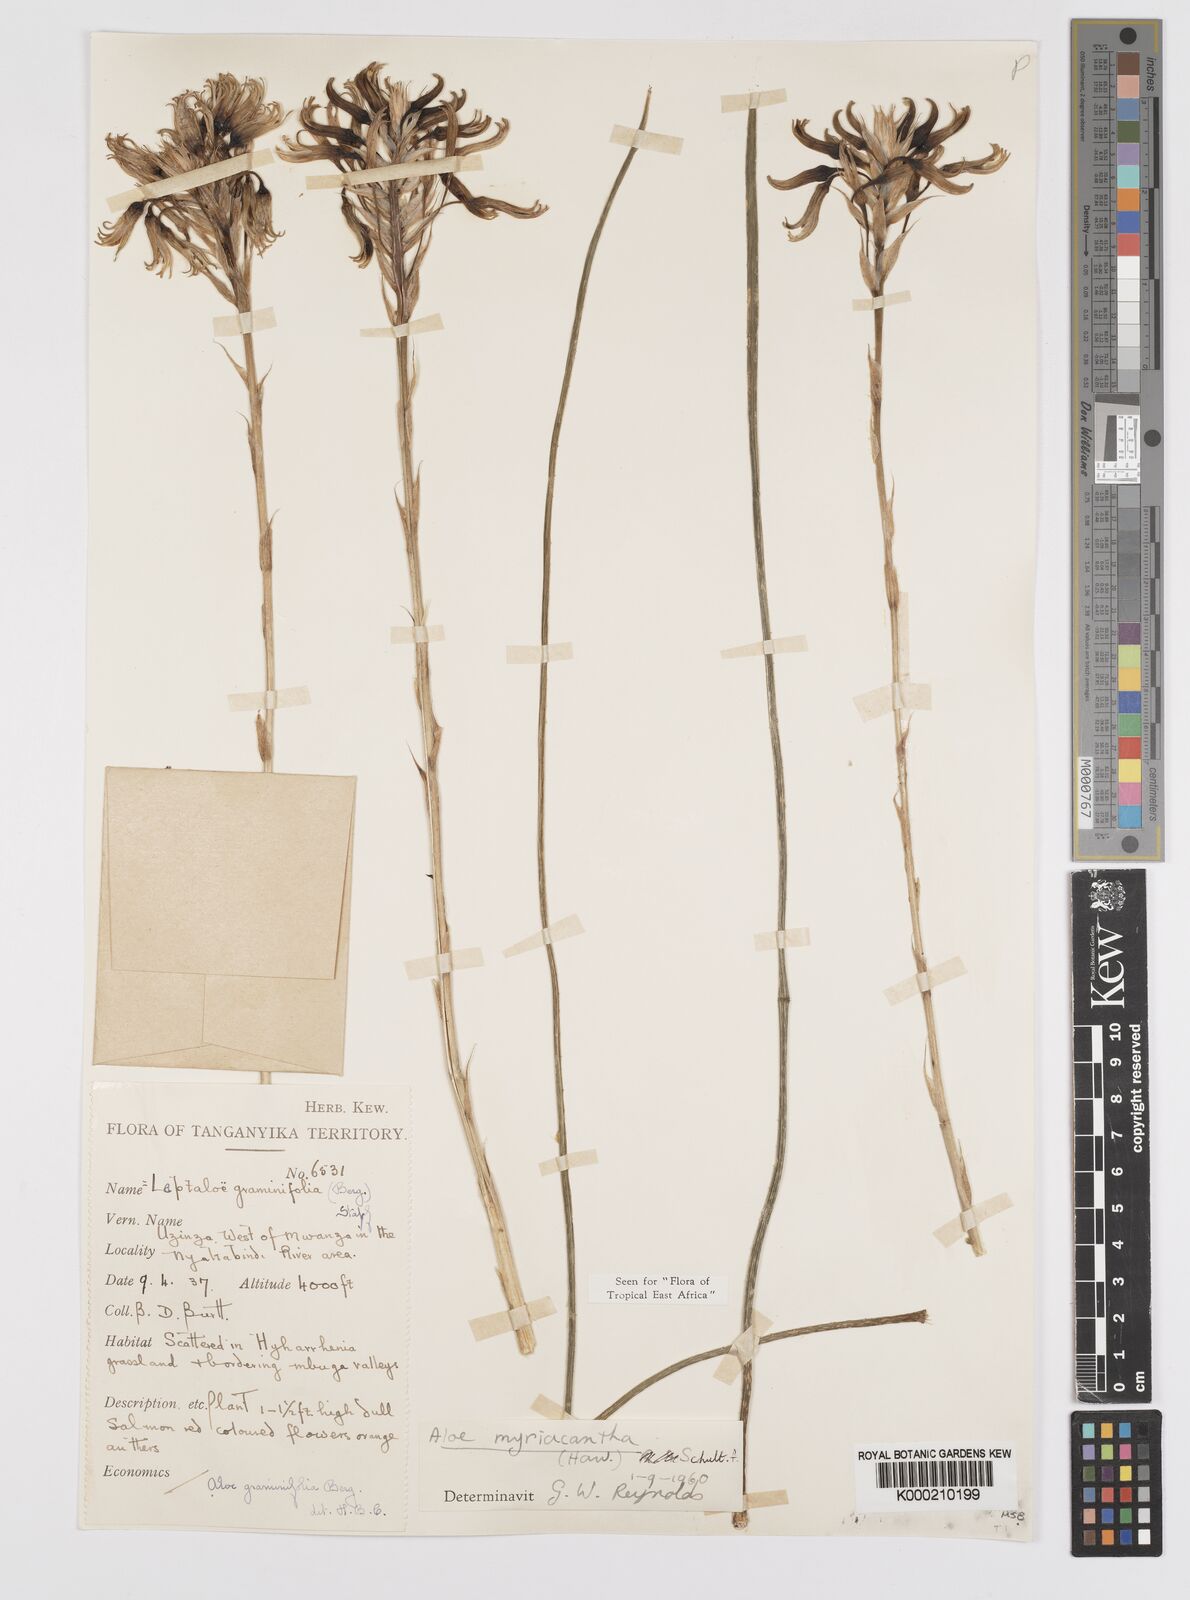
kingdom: Plantae
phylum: Tracheophyta
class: Liliopsida
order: Asparagales
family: Asphodelaceae
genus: Aloe
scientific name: Aloe
